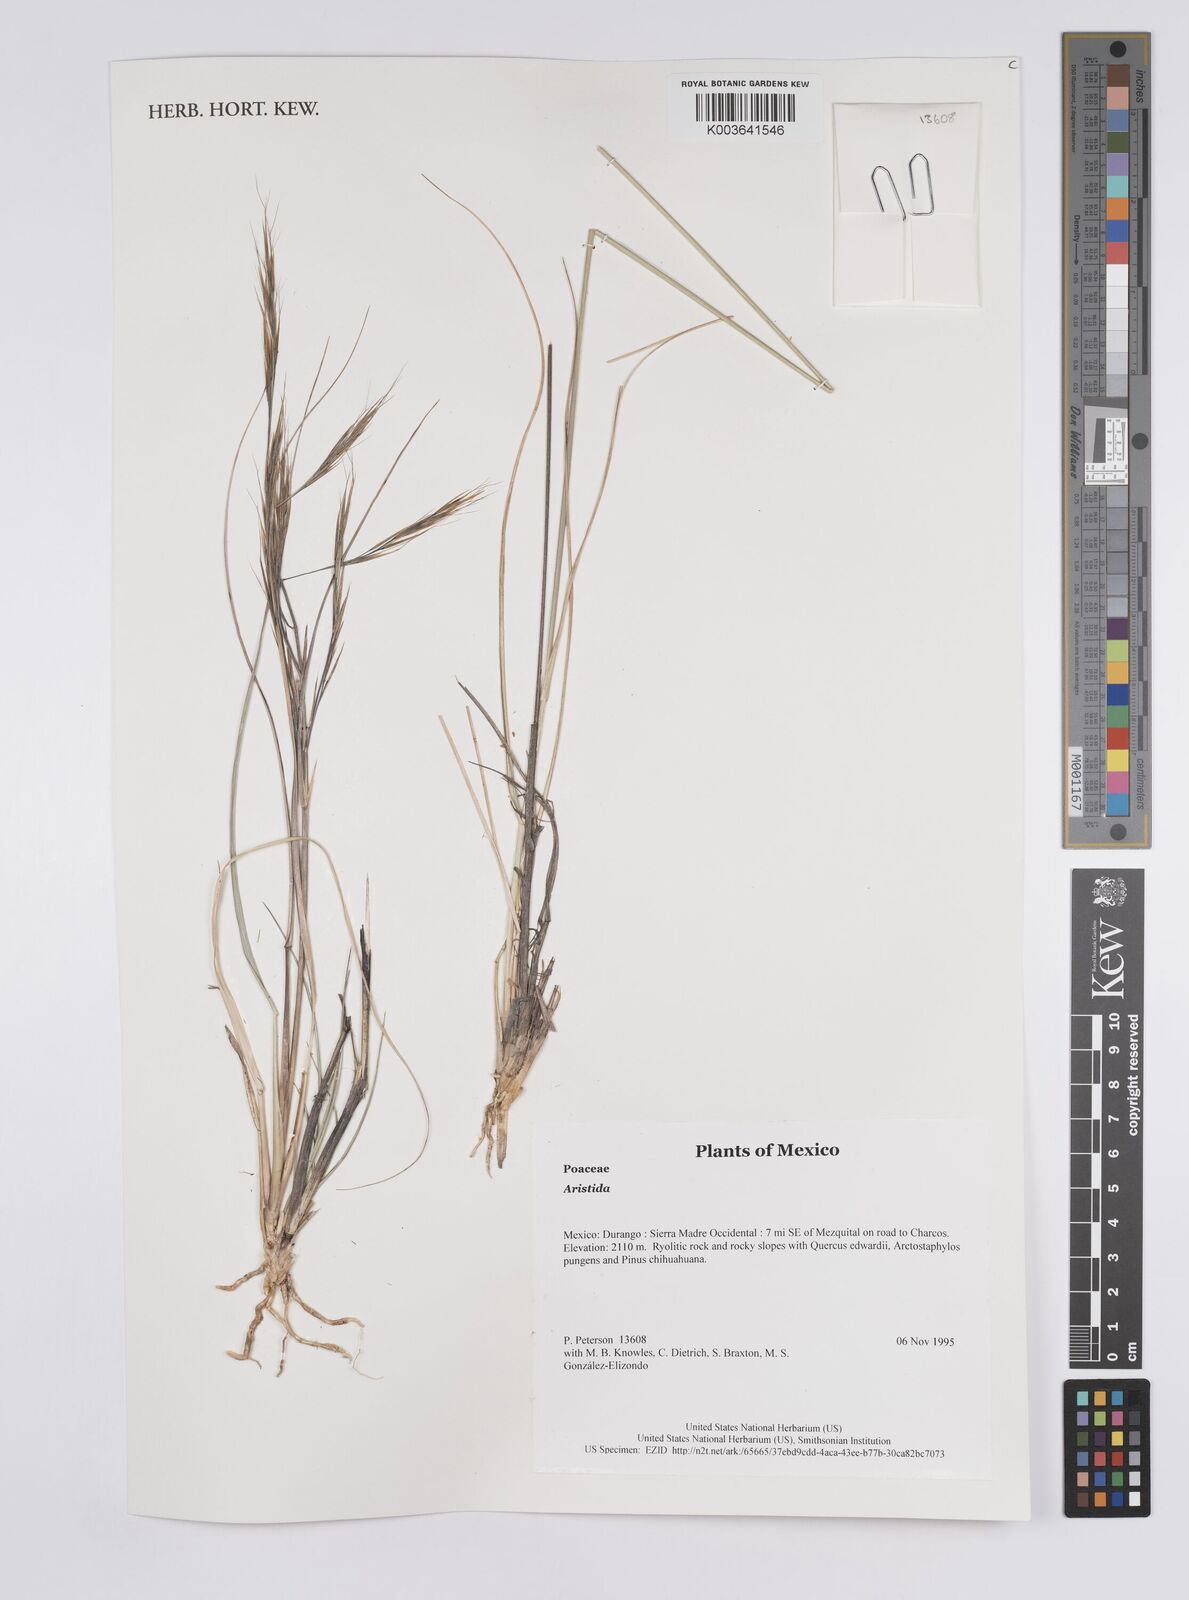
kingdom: Plantae
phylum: Tracheophyta
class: Liliopsida
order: Poales
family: Poaceae
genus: Aristida
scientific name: Aristida
